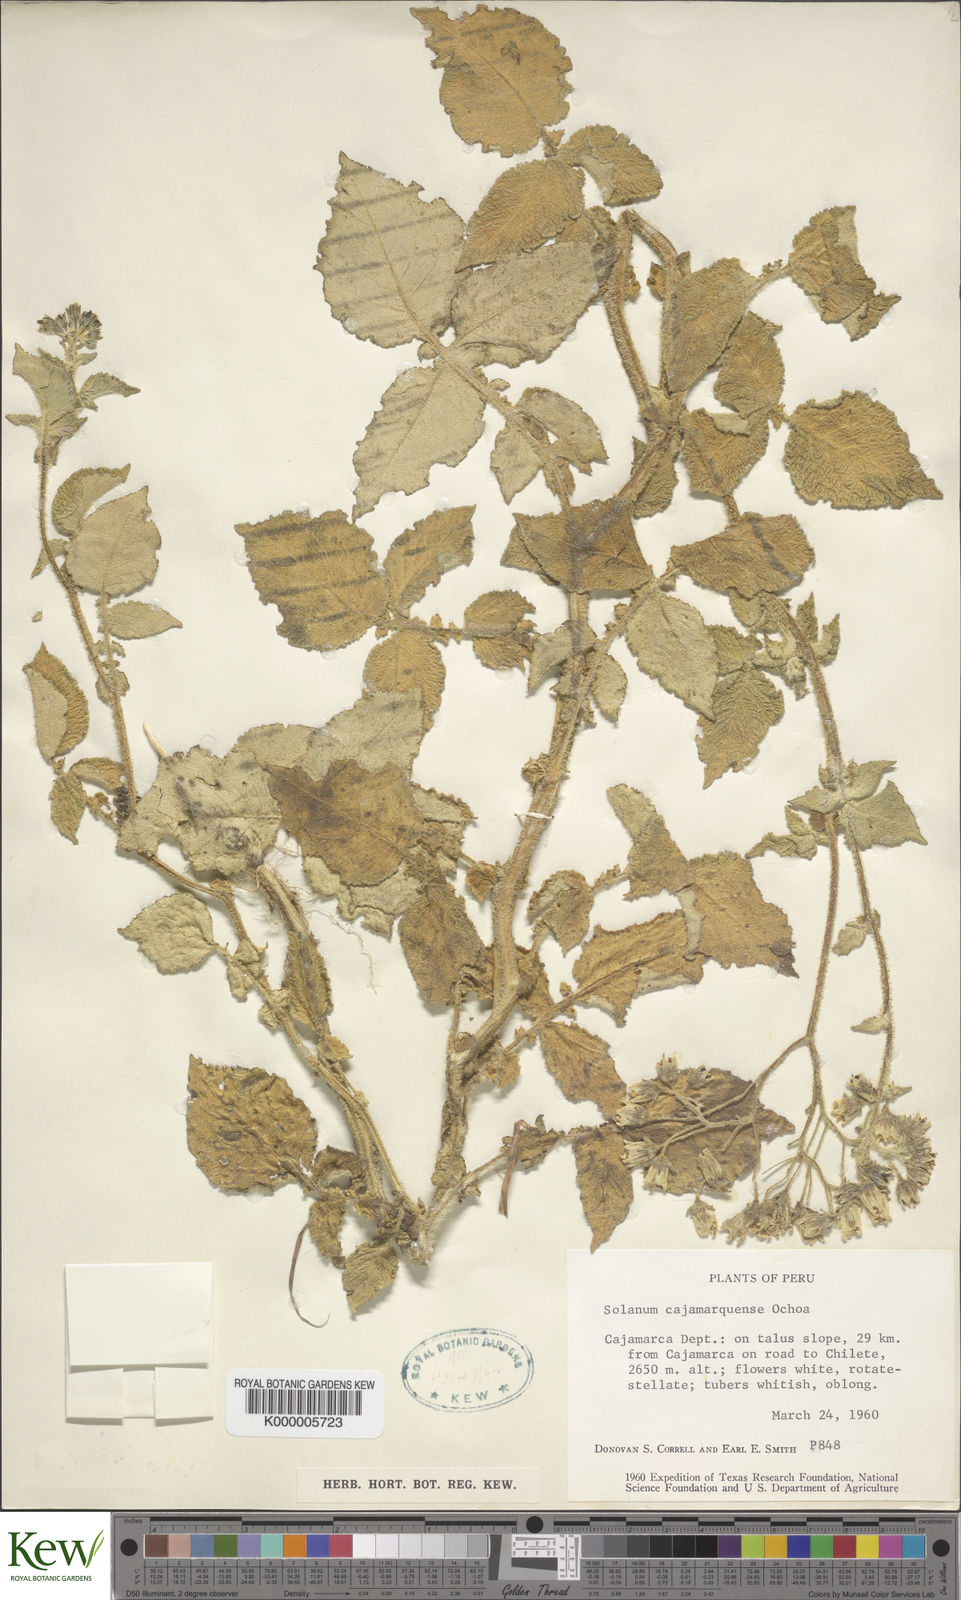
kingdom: Plantae
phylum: Tracheophyta
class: Magnoliopsida
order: Solanales
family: Solanaceae
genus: Solanum
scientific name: Solanum cajamarquense
